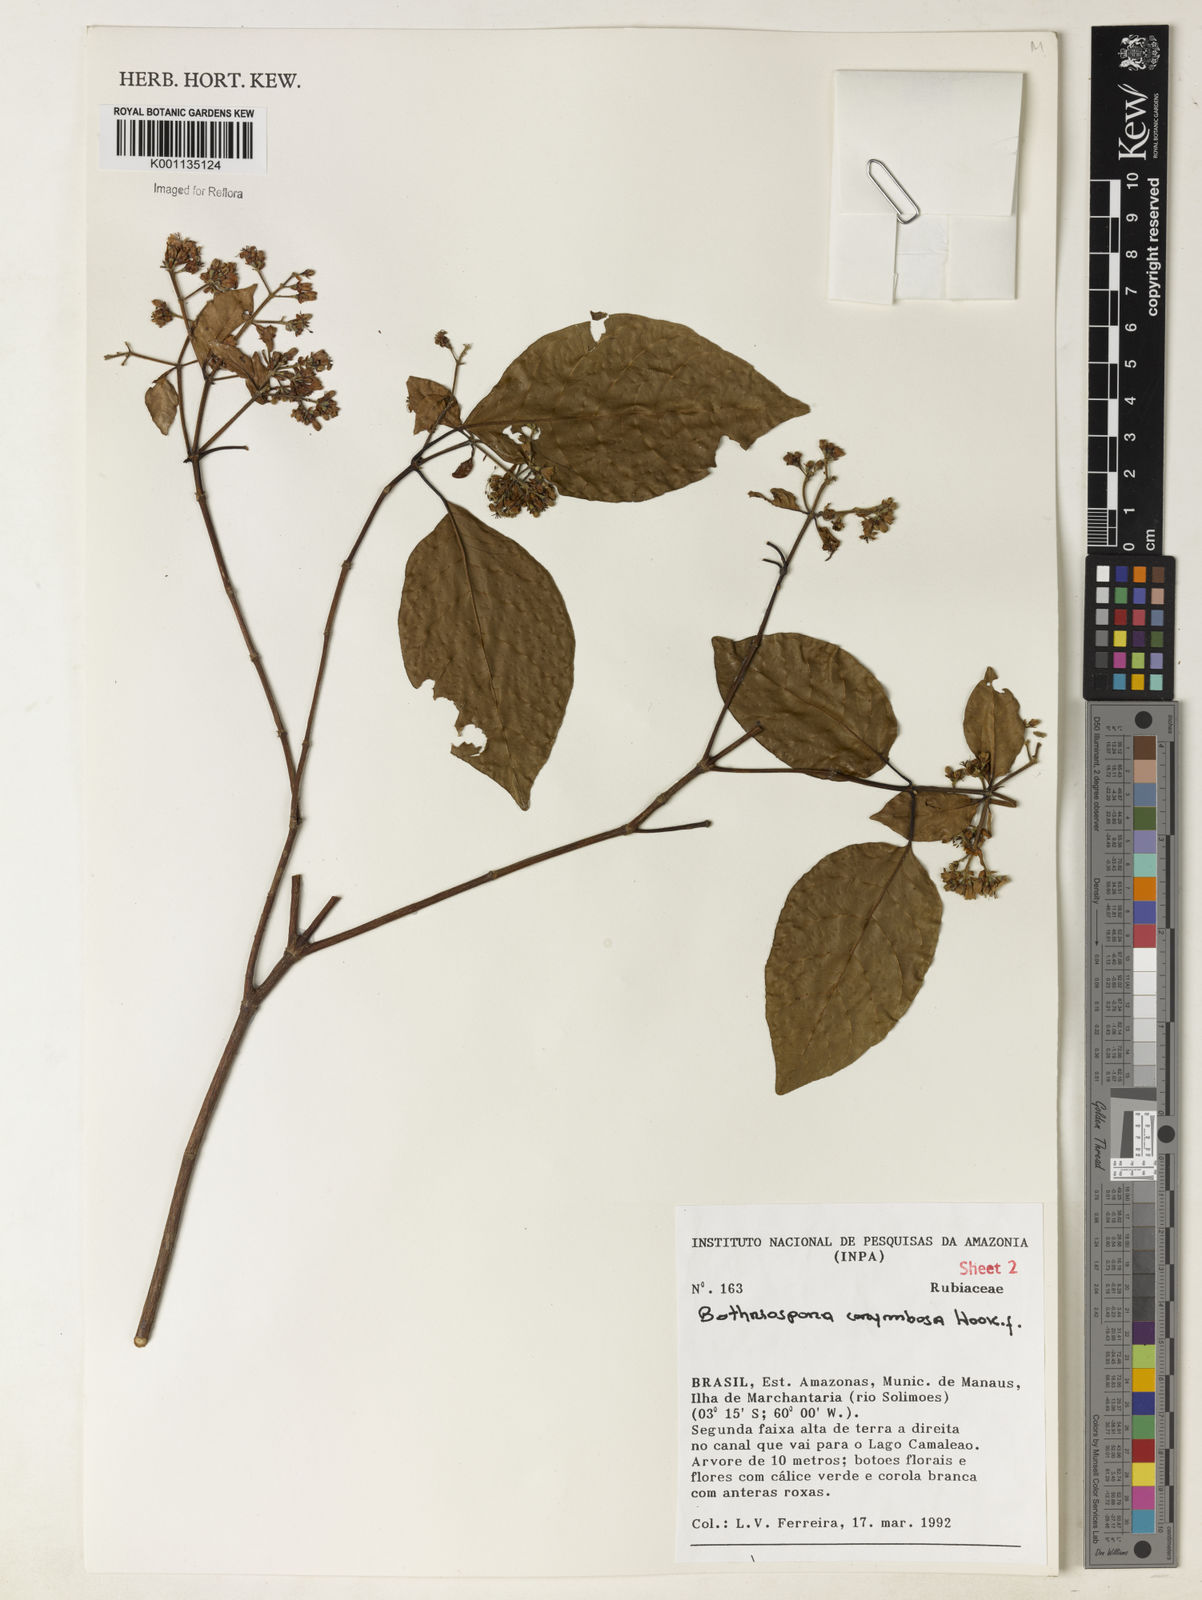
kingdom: Plantae
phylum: Tracheophyta
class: Magnoliopsida
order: Gentianales
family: Rubiaceae
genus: Bothriospora
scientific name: Bothriospora corymbosa
